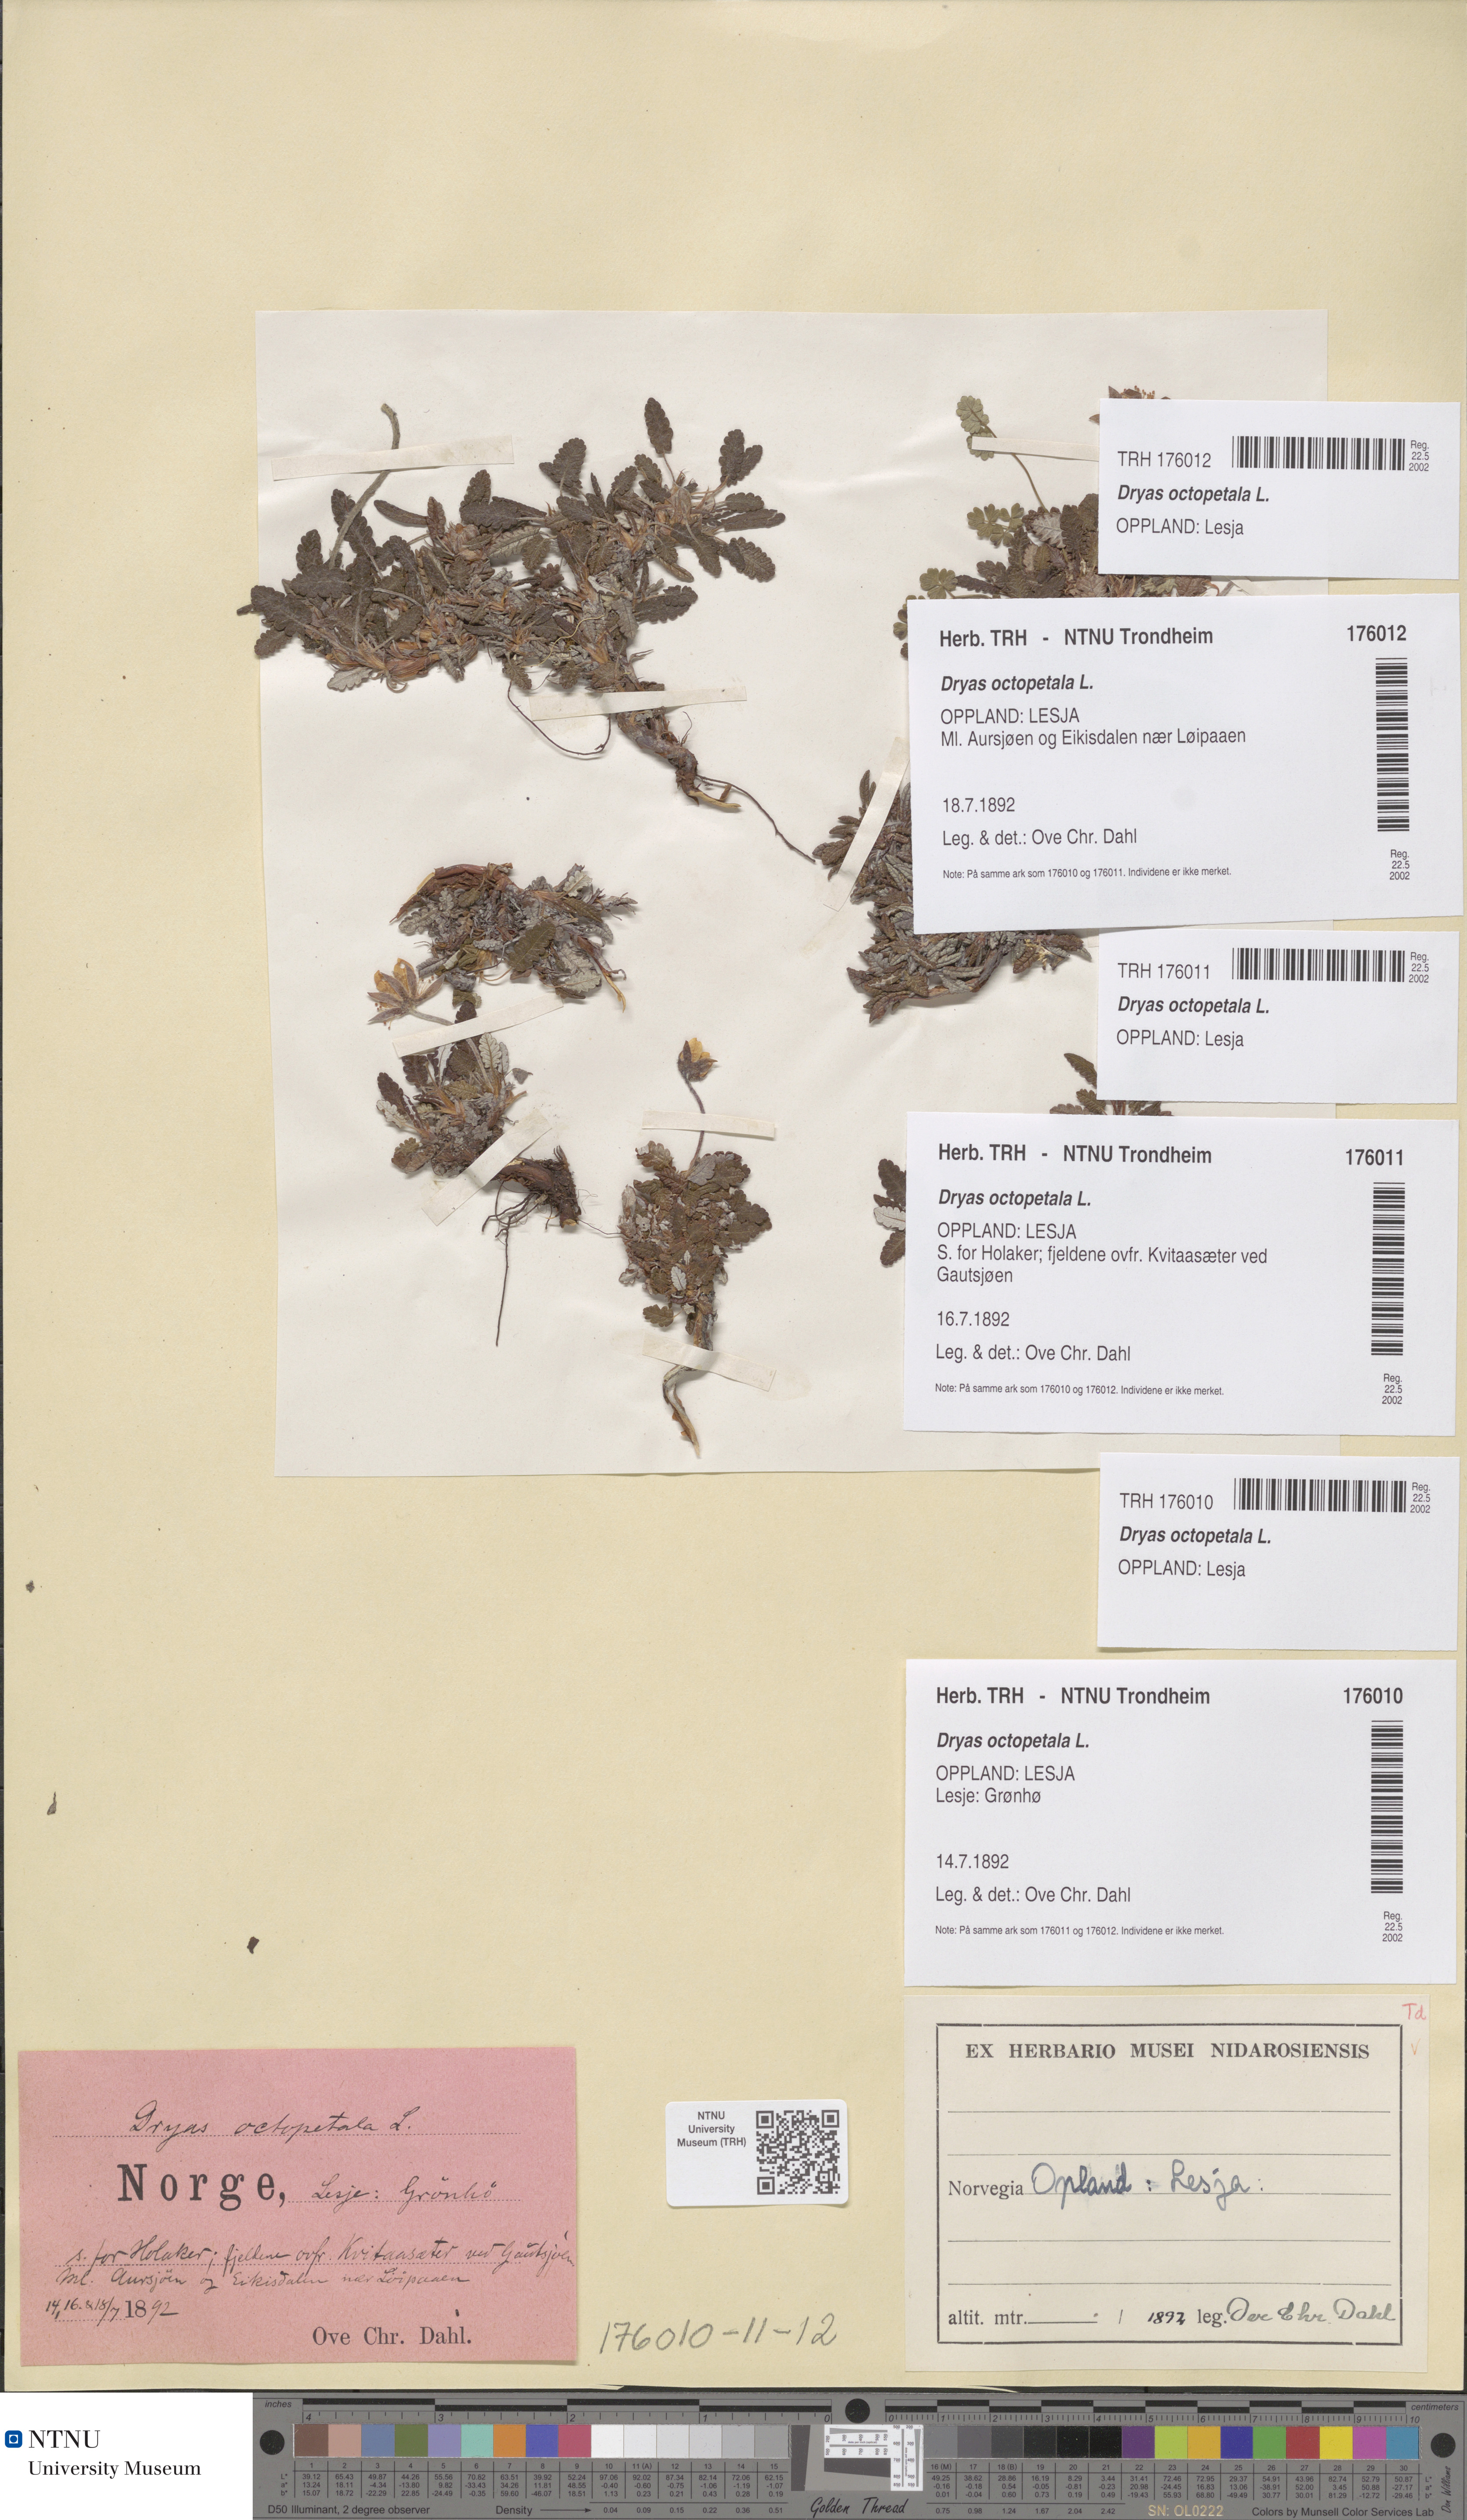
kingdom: Plantae
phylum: Tracheophyta
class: Magnoliopsida
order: Rosales
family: Rosaceae
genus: Dryas
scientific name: Dryas octopetala
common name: Eight-petal mountain-avens
